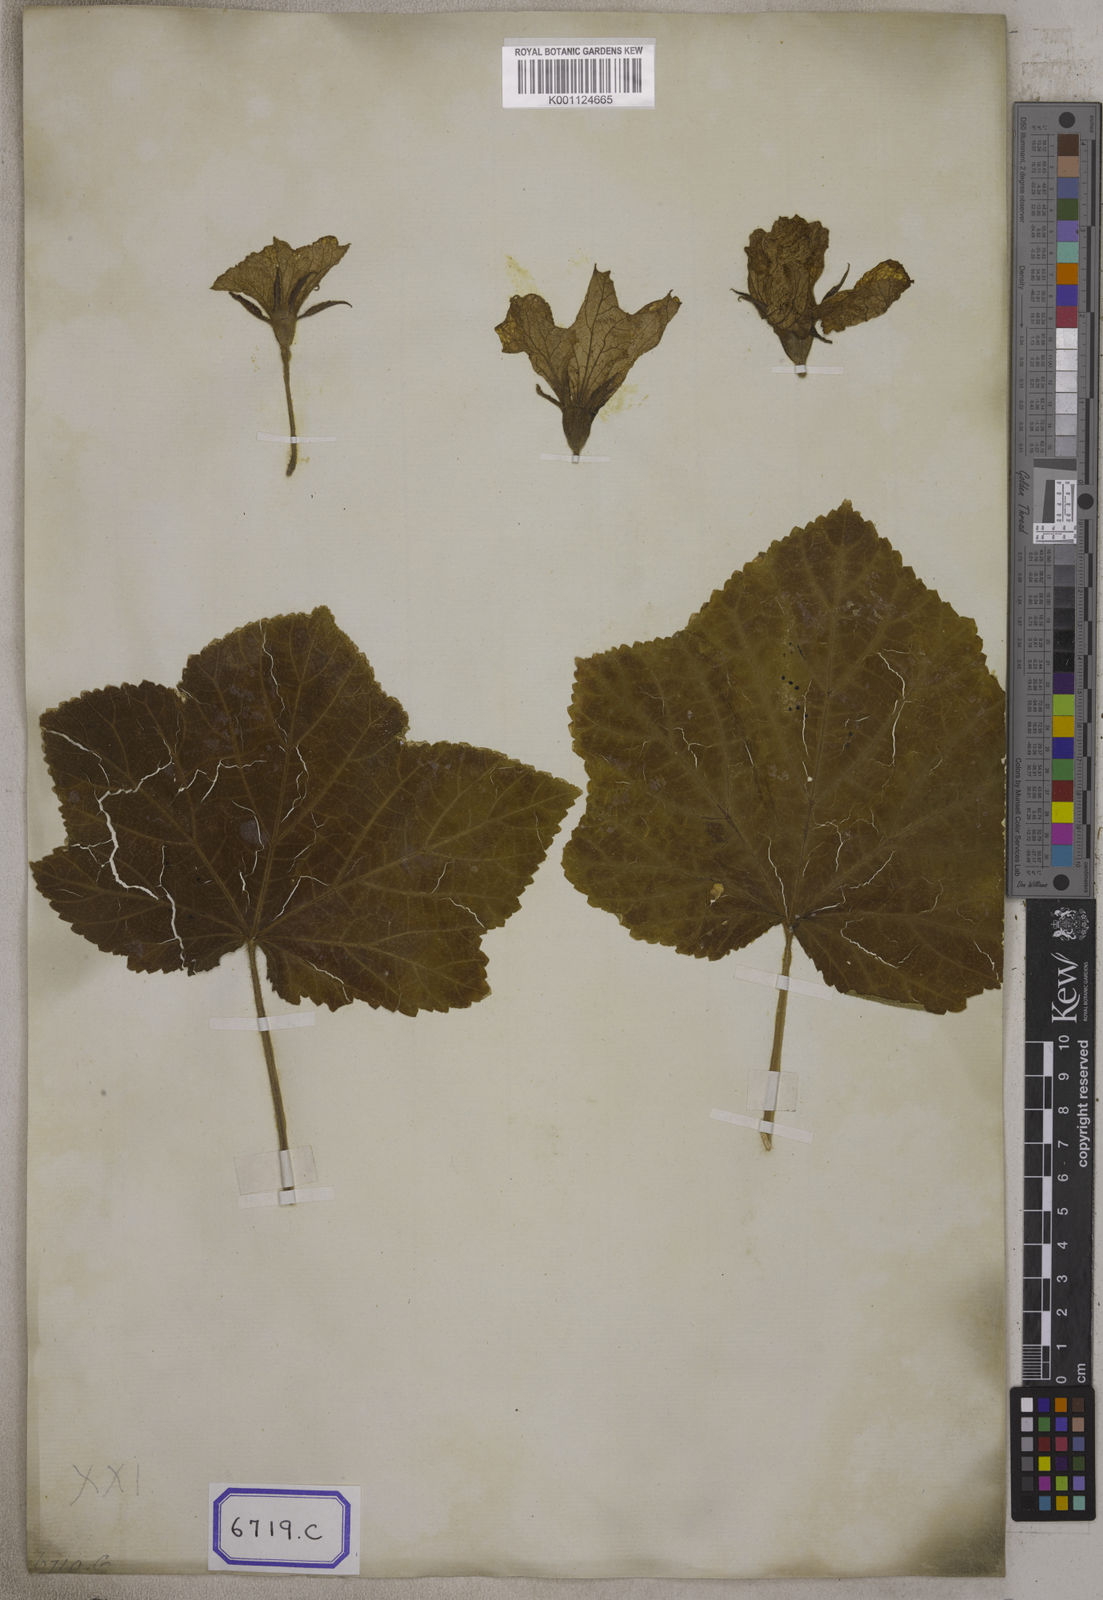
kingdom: Plantae
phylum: Tracheophyta
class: Magnoliopsida
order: Cucurbitales
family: Cucurbitaceae
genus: Lagenaria
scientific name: Lagenaria siceraria
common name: Bottle gourd
